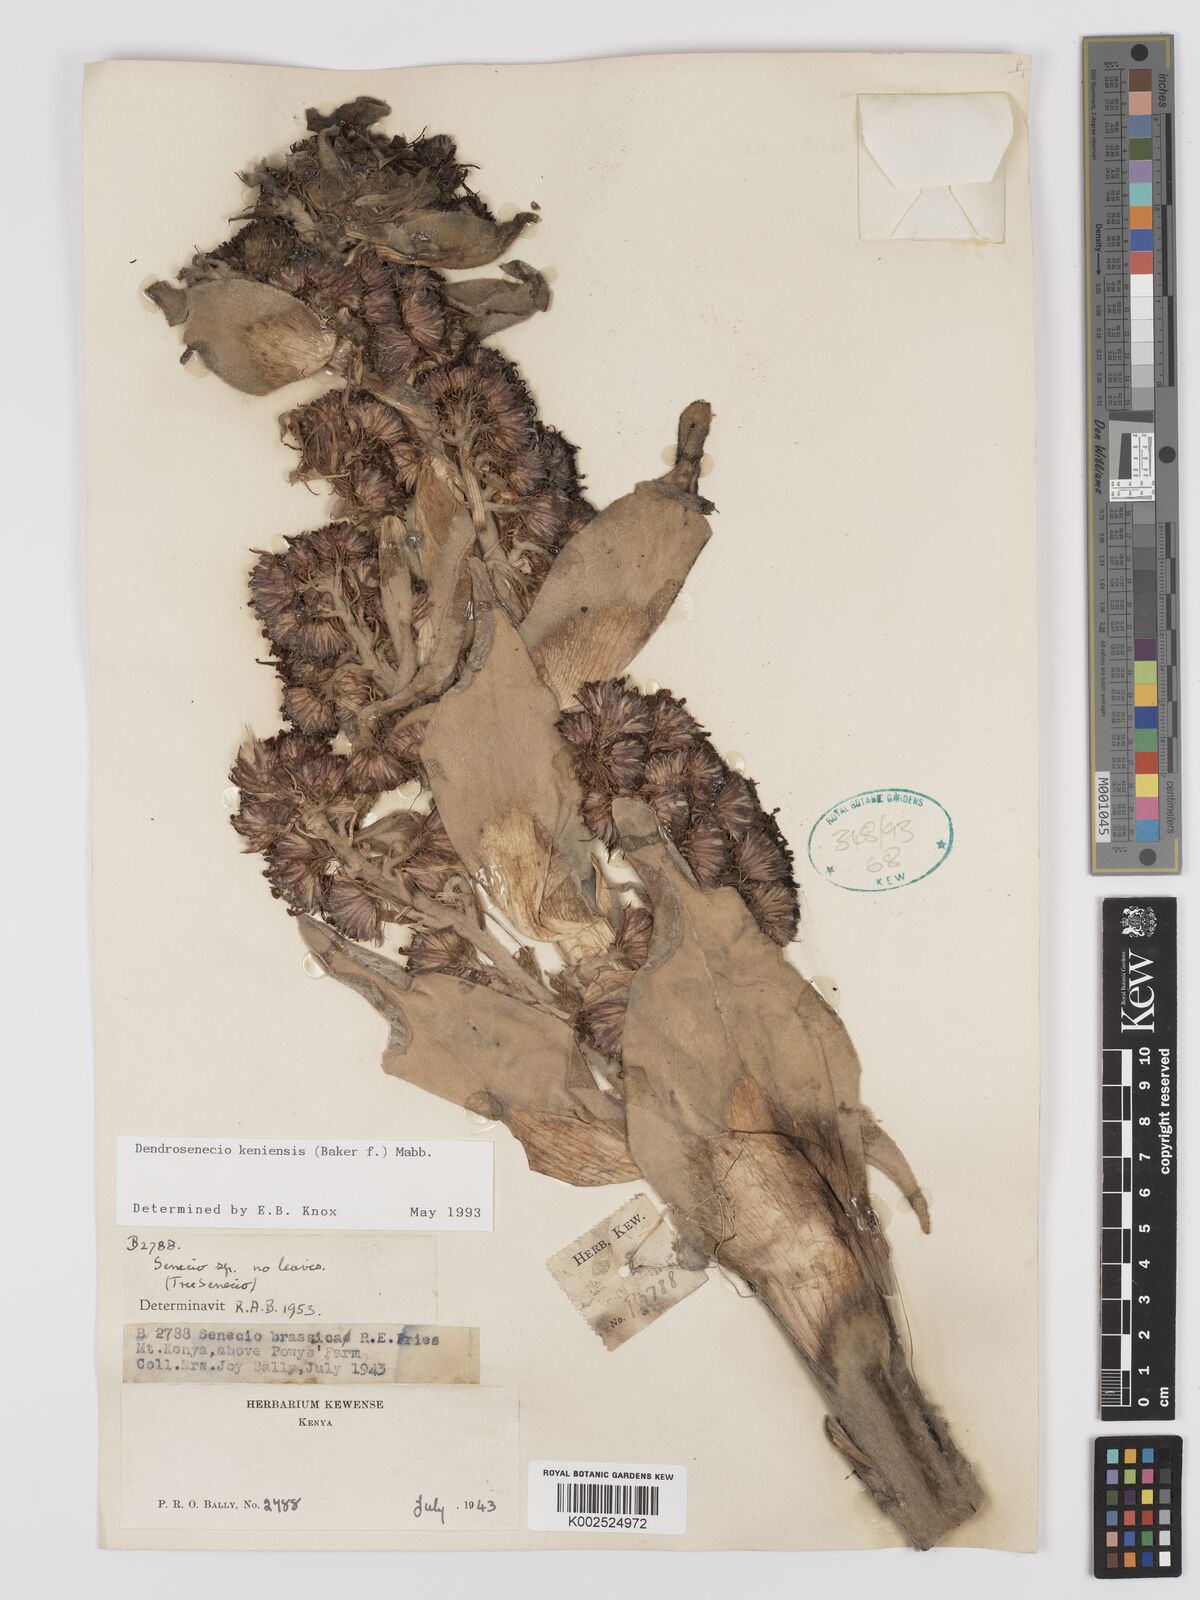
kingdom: Plantae
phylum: Tracheophyta
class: Magnoliopsida
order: Asterales
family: Asteraceae
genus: Dendrosenecio
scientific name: Dendrosenecio keniensis
